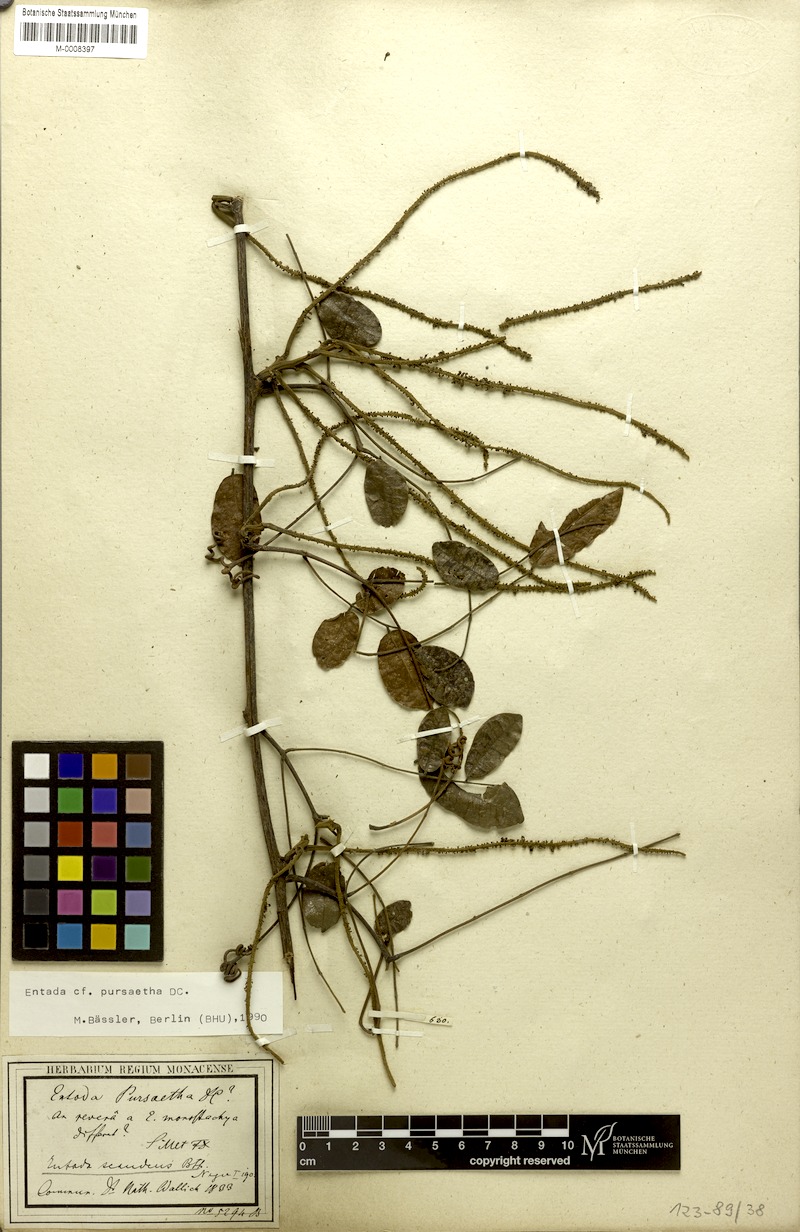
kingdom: Plantae
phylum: Tracheophyta
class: Magnoliopsida
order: Fabales
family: Fabaceae
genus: Entada
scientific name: Entada rheedei
